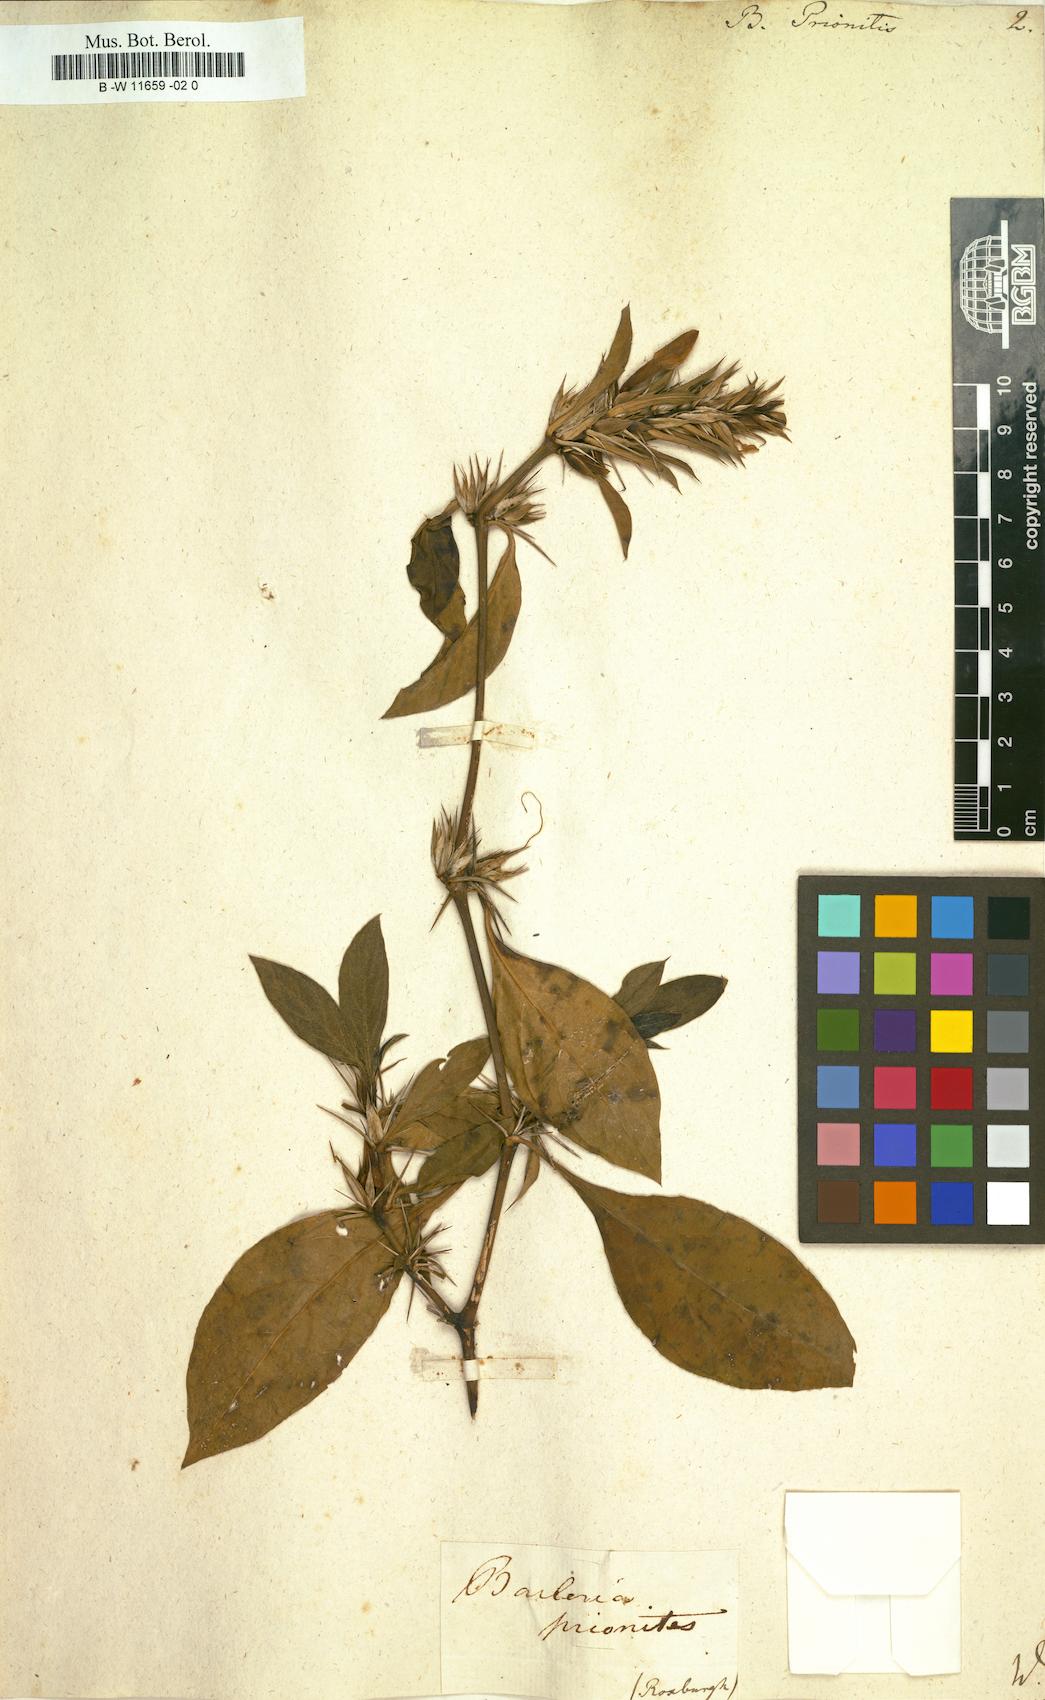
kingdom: Plantae
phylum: Tracheophyta
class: Magnoliopsida
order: Lamiales
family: Acanthaceae
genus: Barleria
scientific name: Barleria prionitis
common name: Barleria
